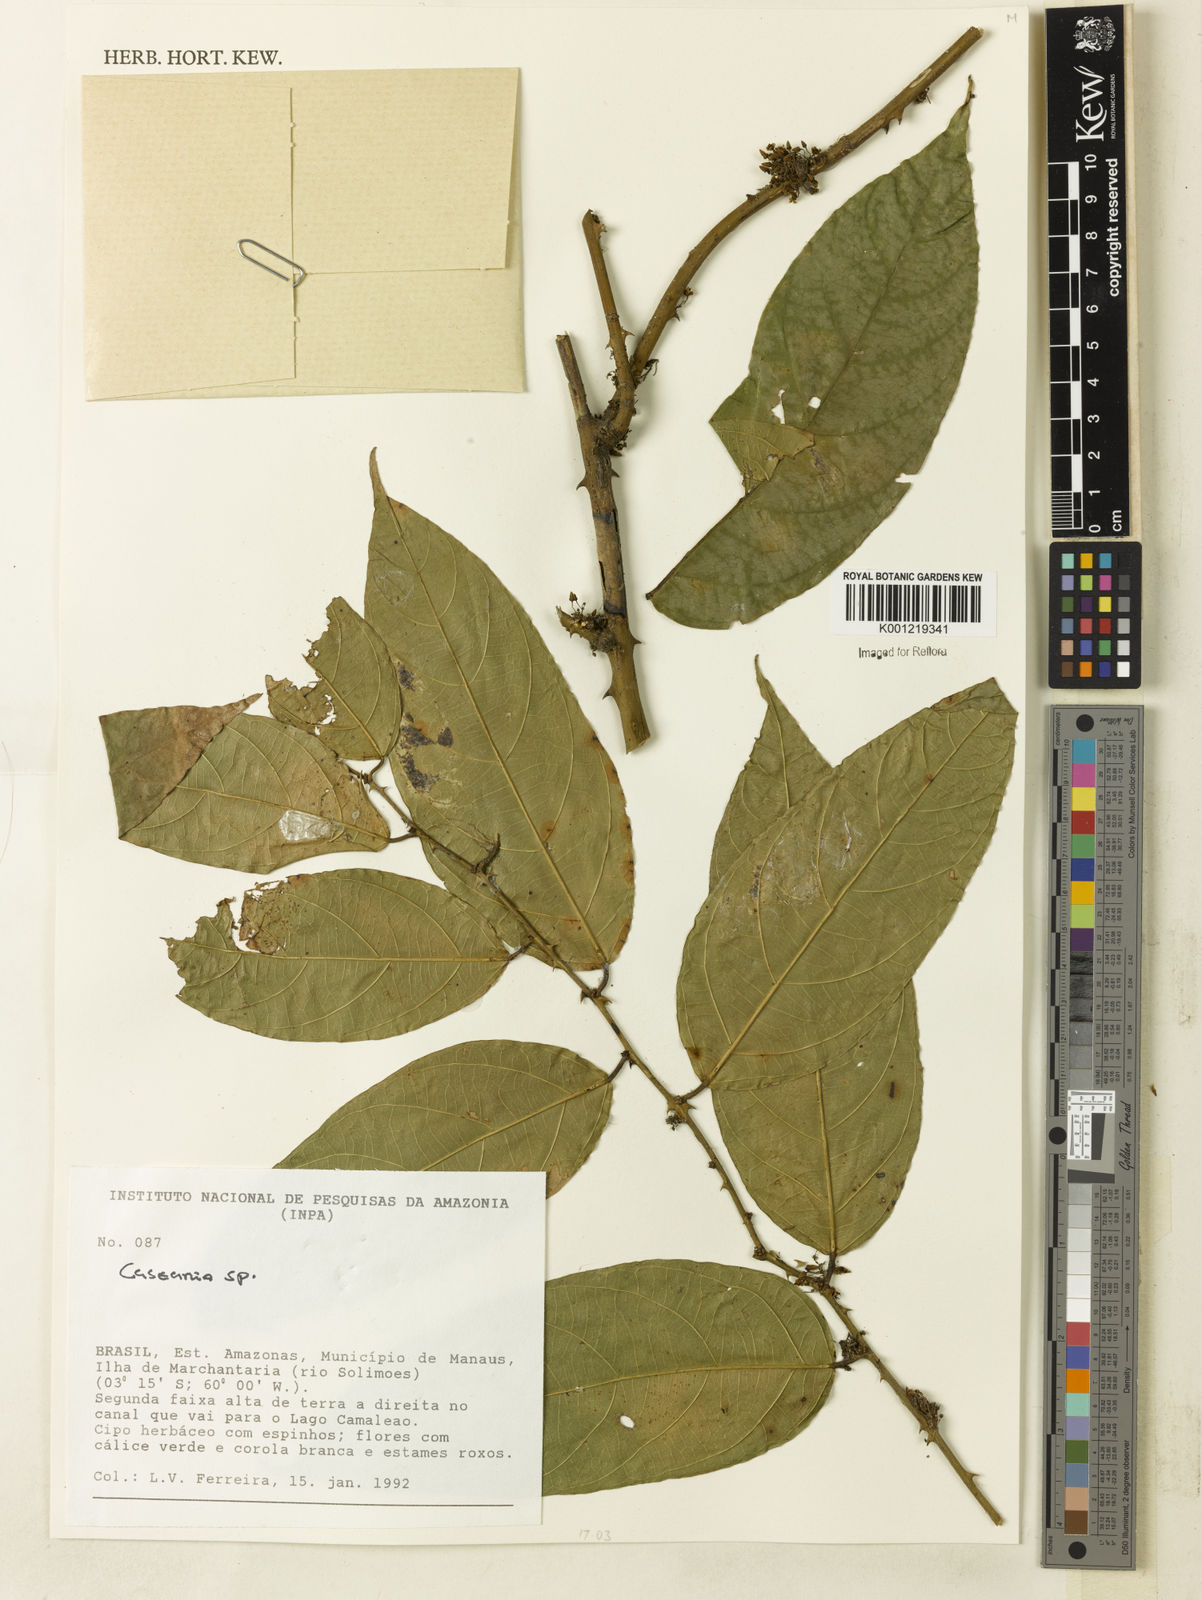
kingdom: Plantae
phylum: Tracheophyta
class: Magnoliopsida
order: Malpighiales
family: Salicaceae
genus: Casearia
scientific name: Casearia
